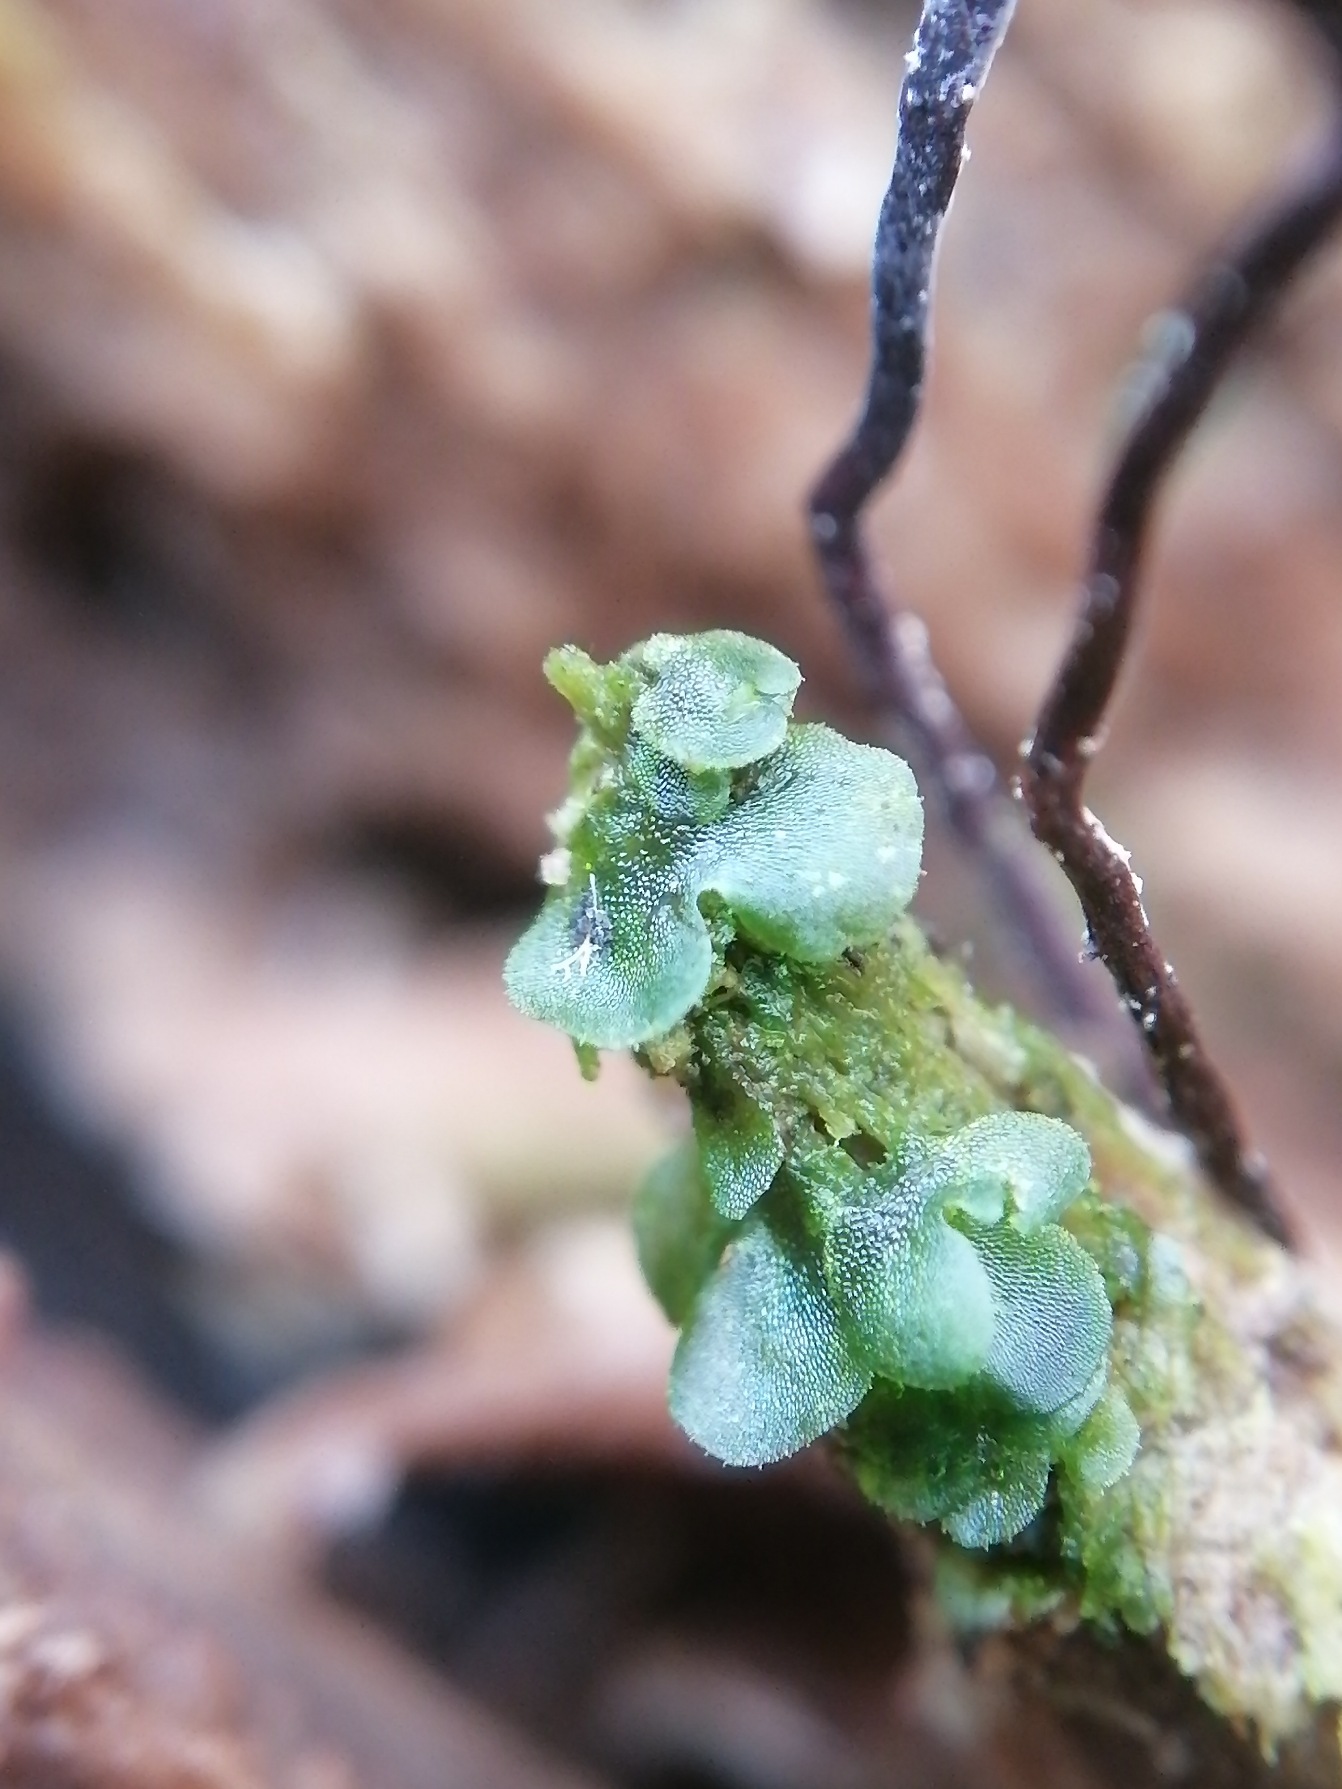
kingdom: Plantae
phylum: Tracheophyta
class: Polypodiopsida
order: Polypodiales
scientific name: Polypodiales
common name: Engelsødordenen
